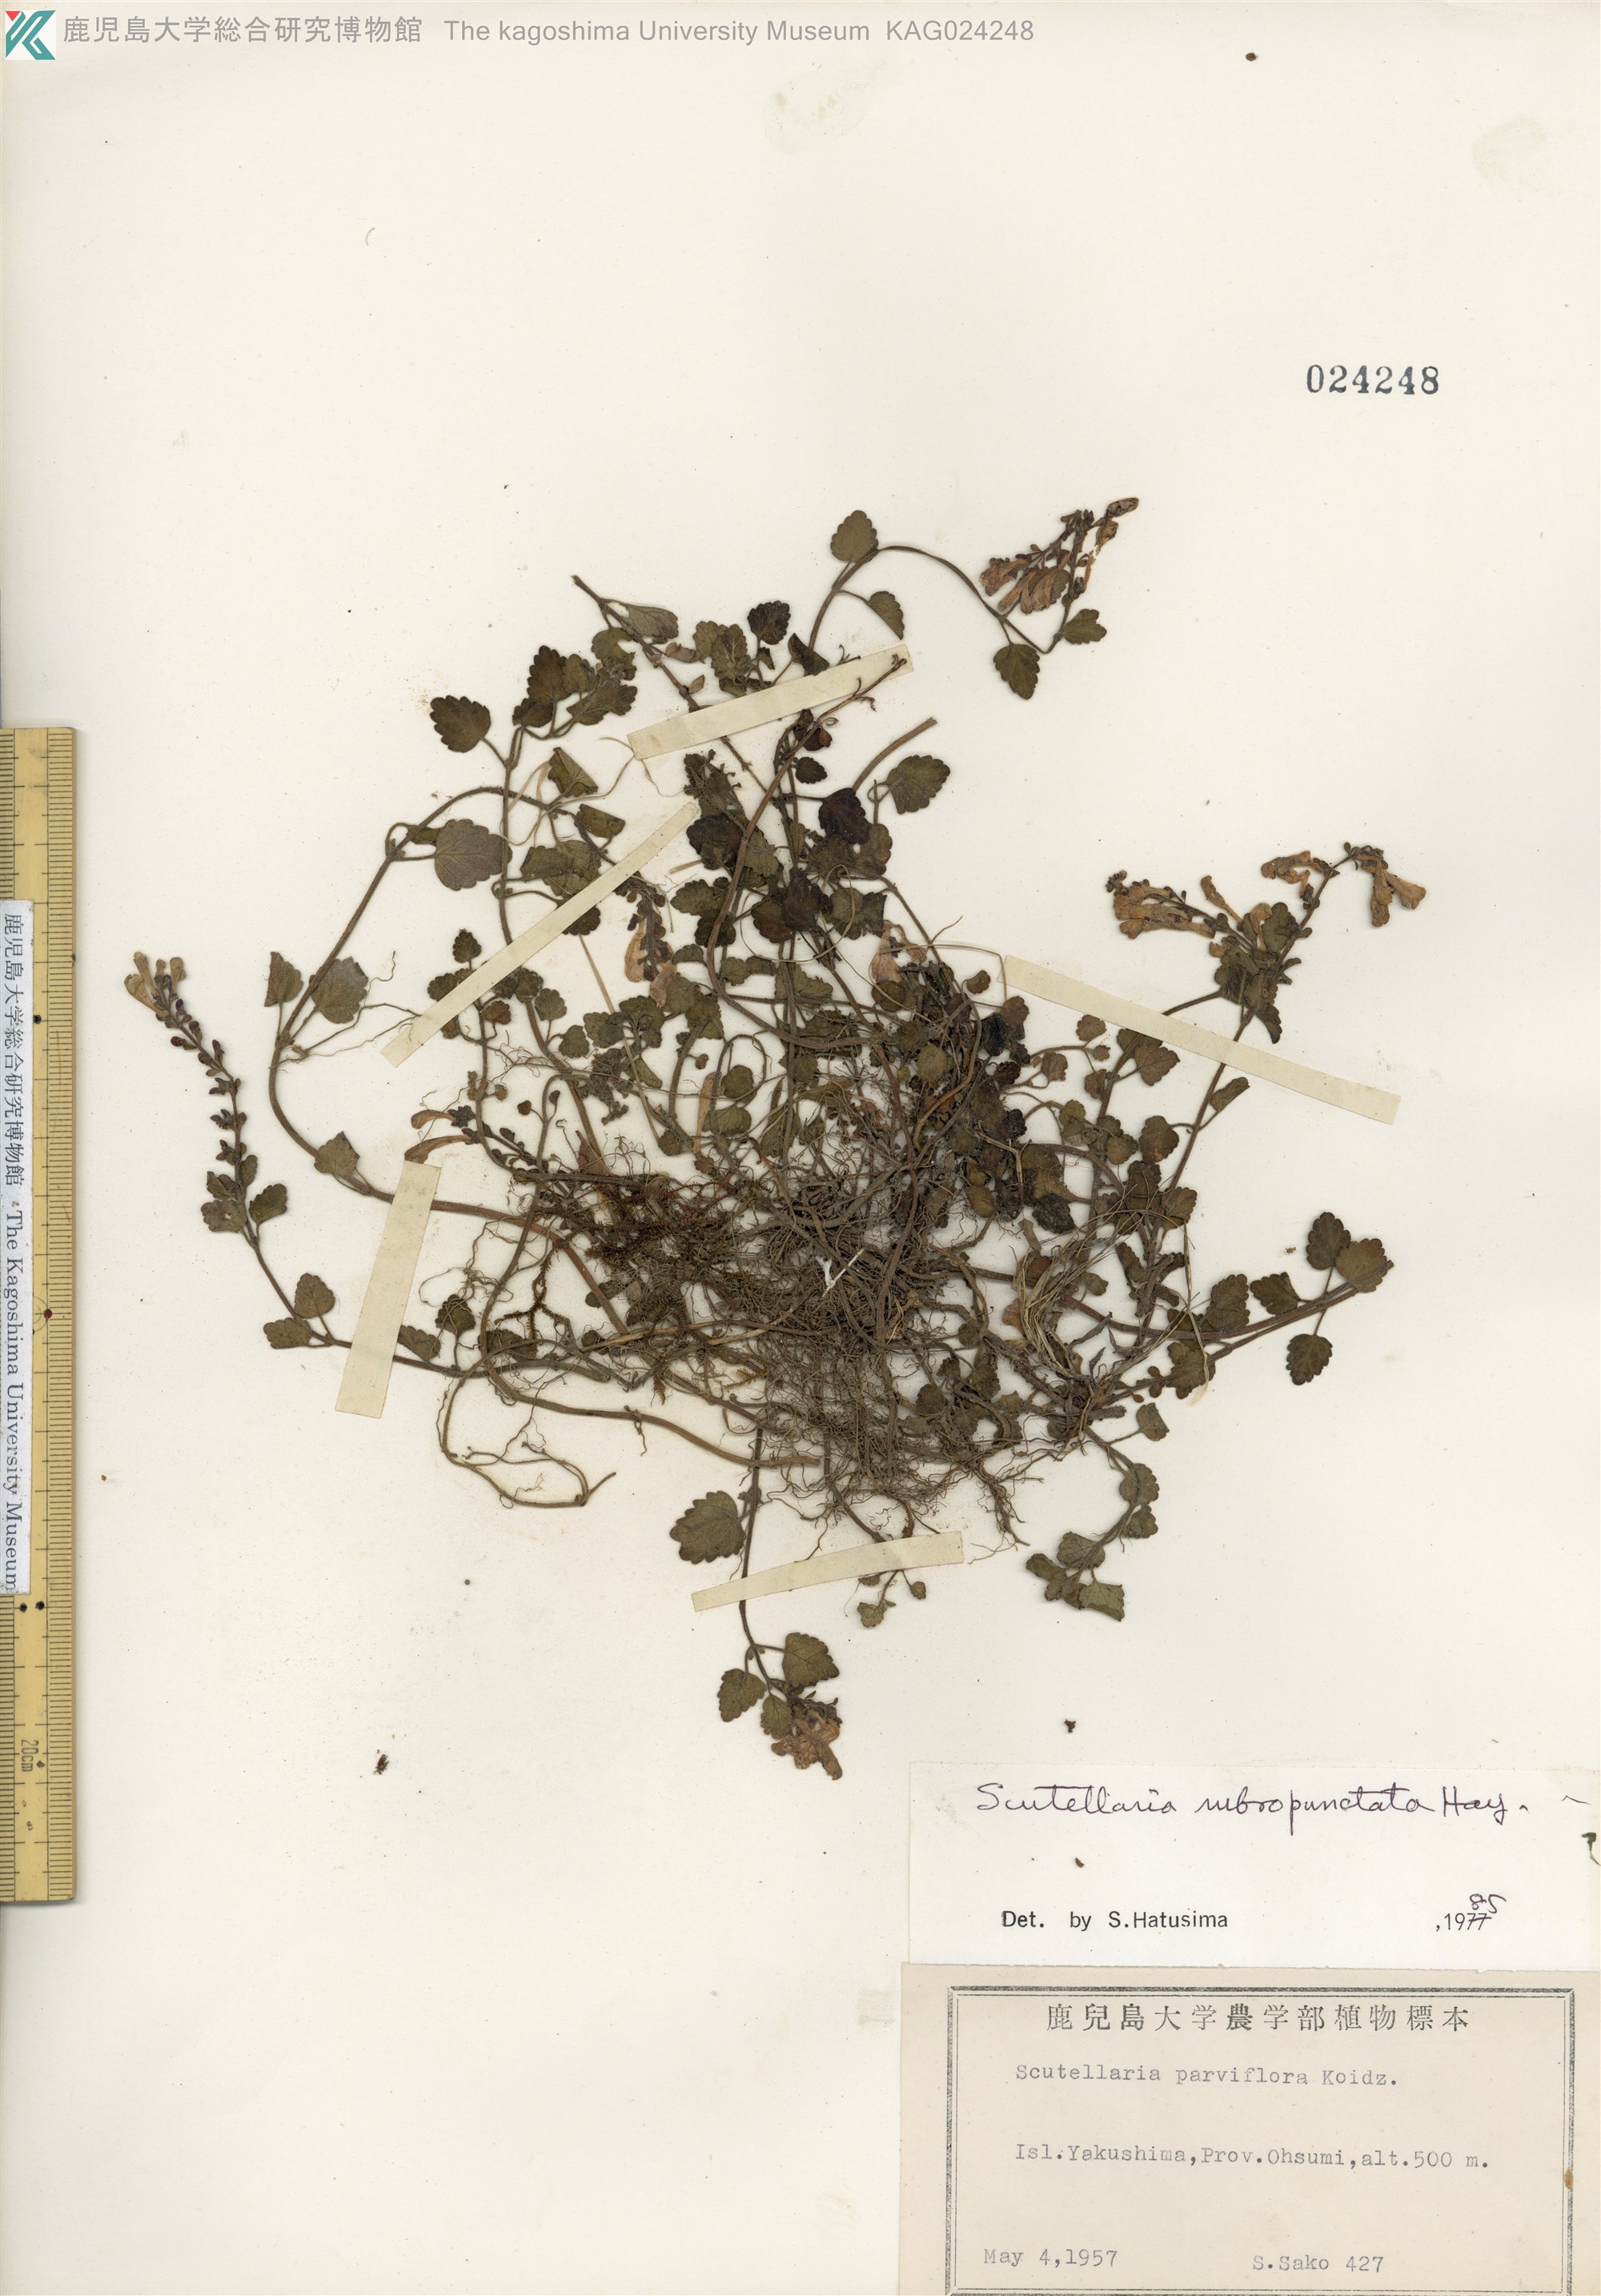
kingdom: Plantae
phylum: Tracheophyta
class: Magnoliopsida
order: Lamiales
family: Lamiaceae
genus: Scutellaria
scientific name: Scutellaria rubropunctata
